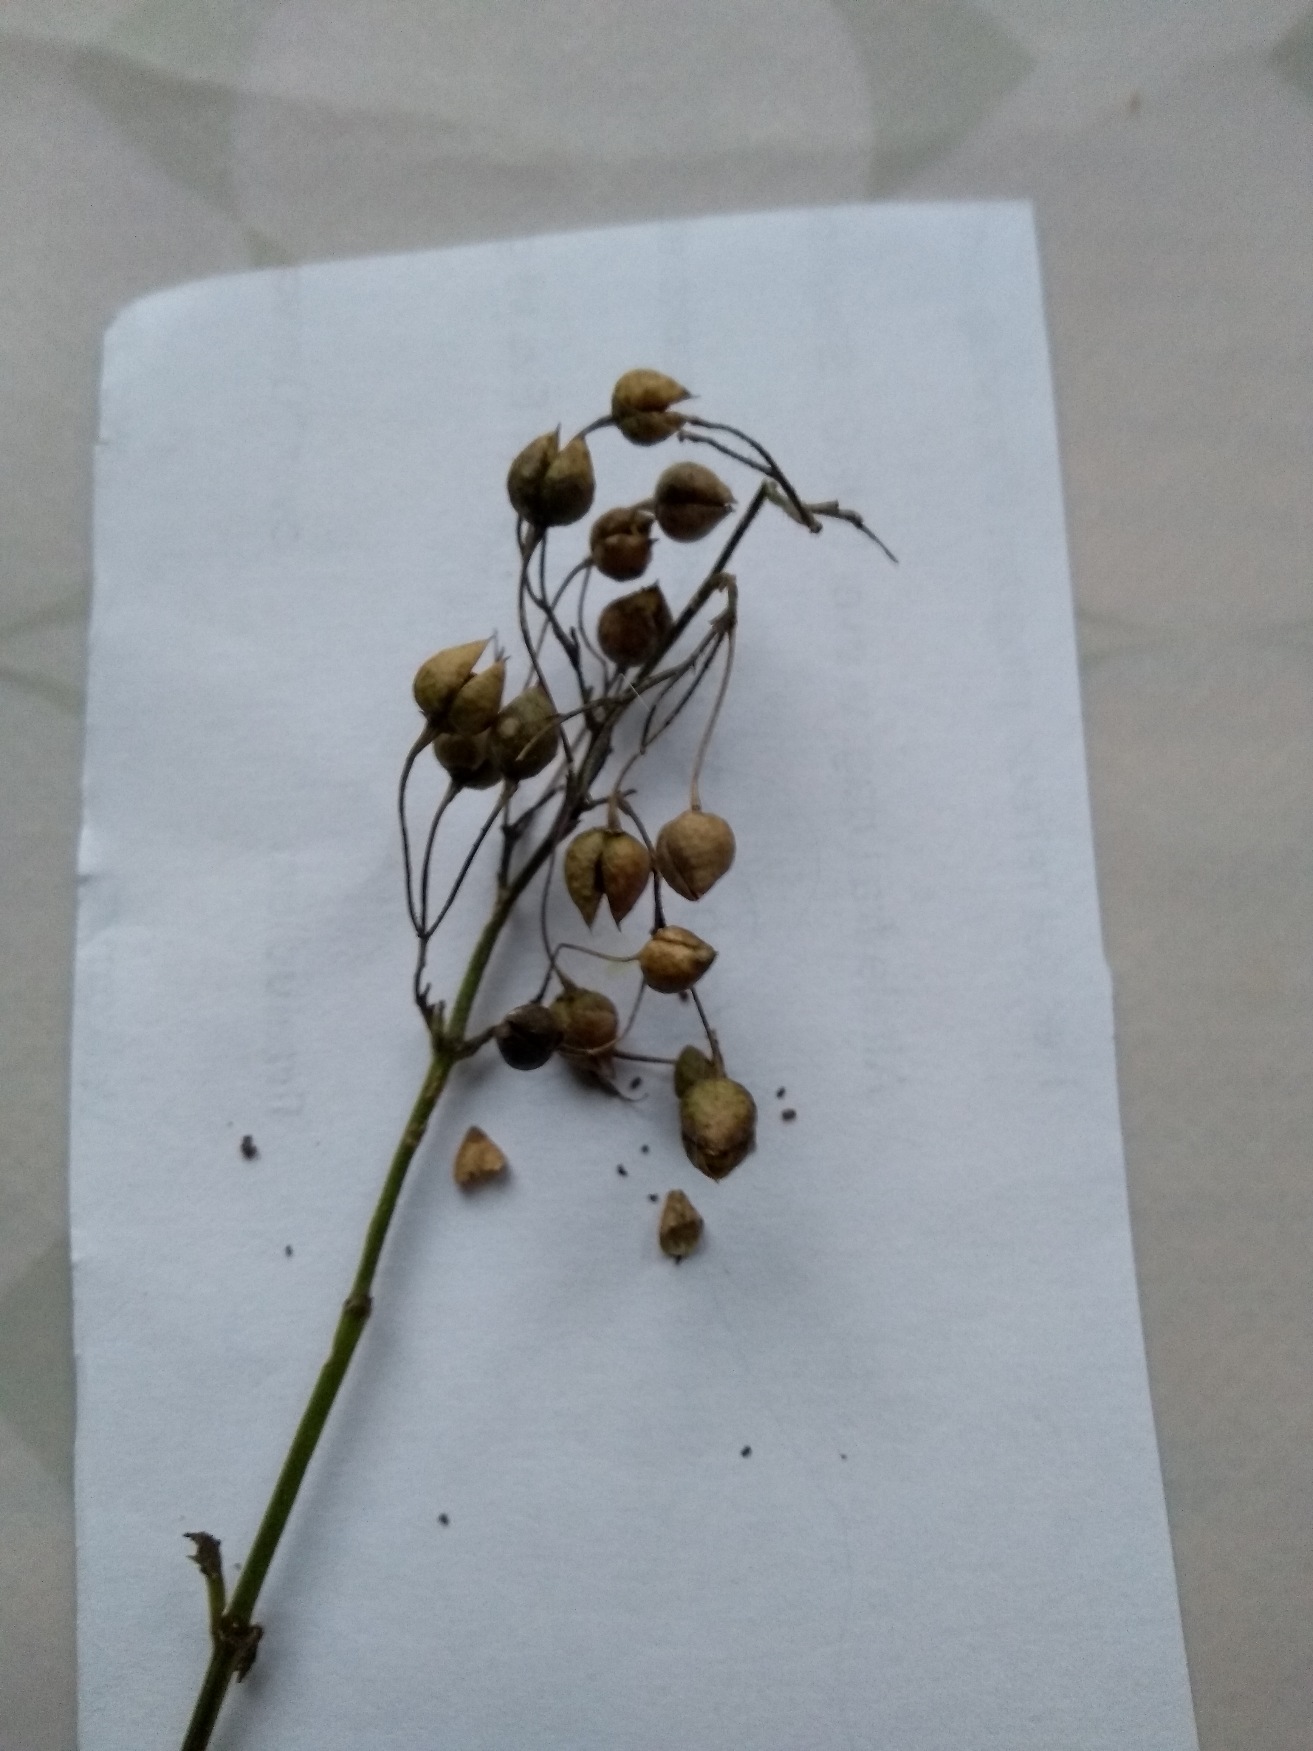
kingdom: Plantae
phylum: Tracheophyta
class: Magnoliopsida
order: Lamiales
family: Scrophulariaceae
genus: Scrophularia
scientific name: Scrophularia nodosa
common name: Knoldet brunrod
